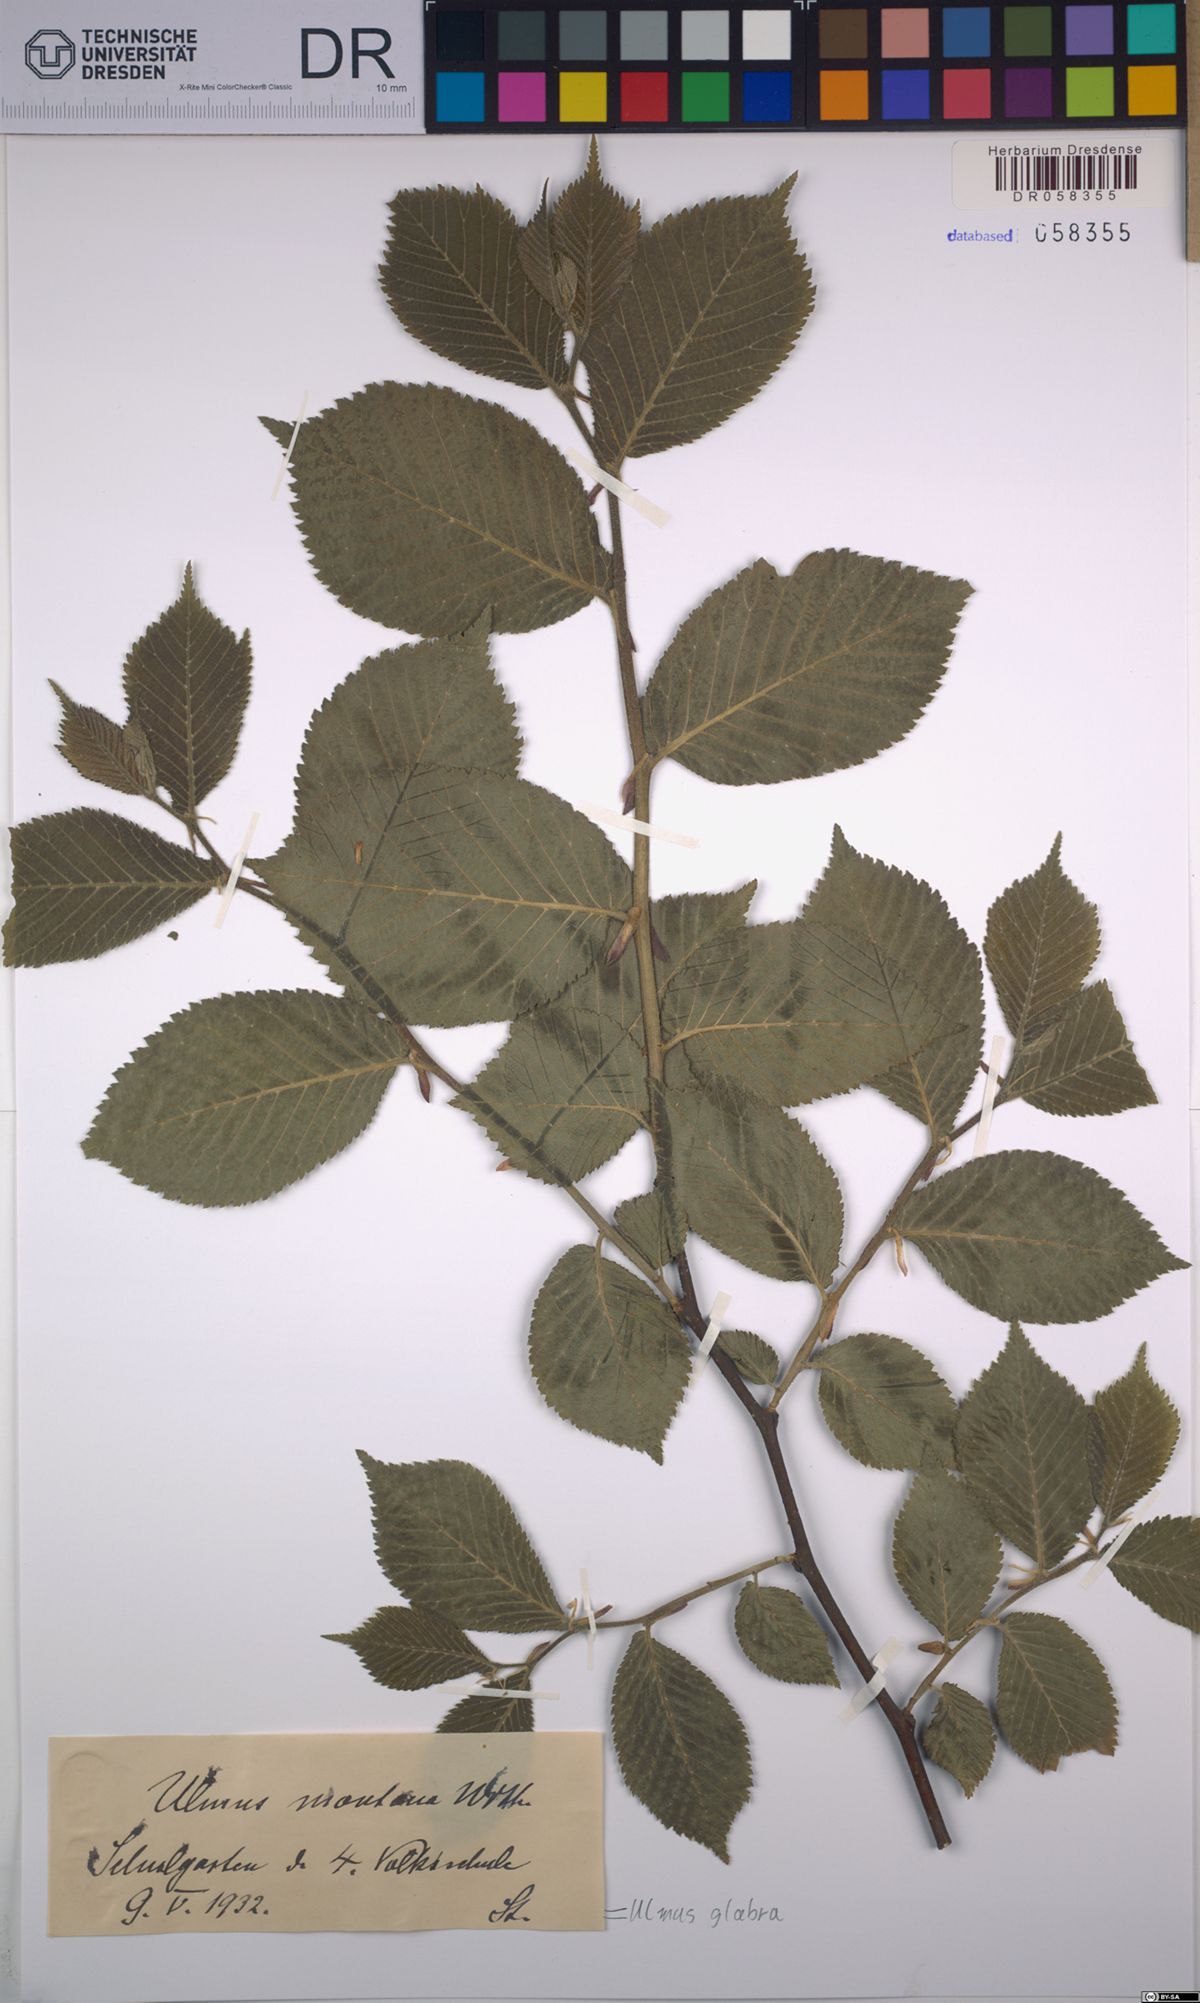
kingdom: Plantae
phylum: Tracheophyta
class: Magnoliopsida
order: Rosales
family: Ulmaceae
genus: Ulmus
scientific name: Ulmus glabra
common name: Wych elm
